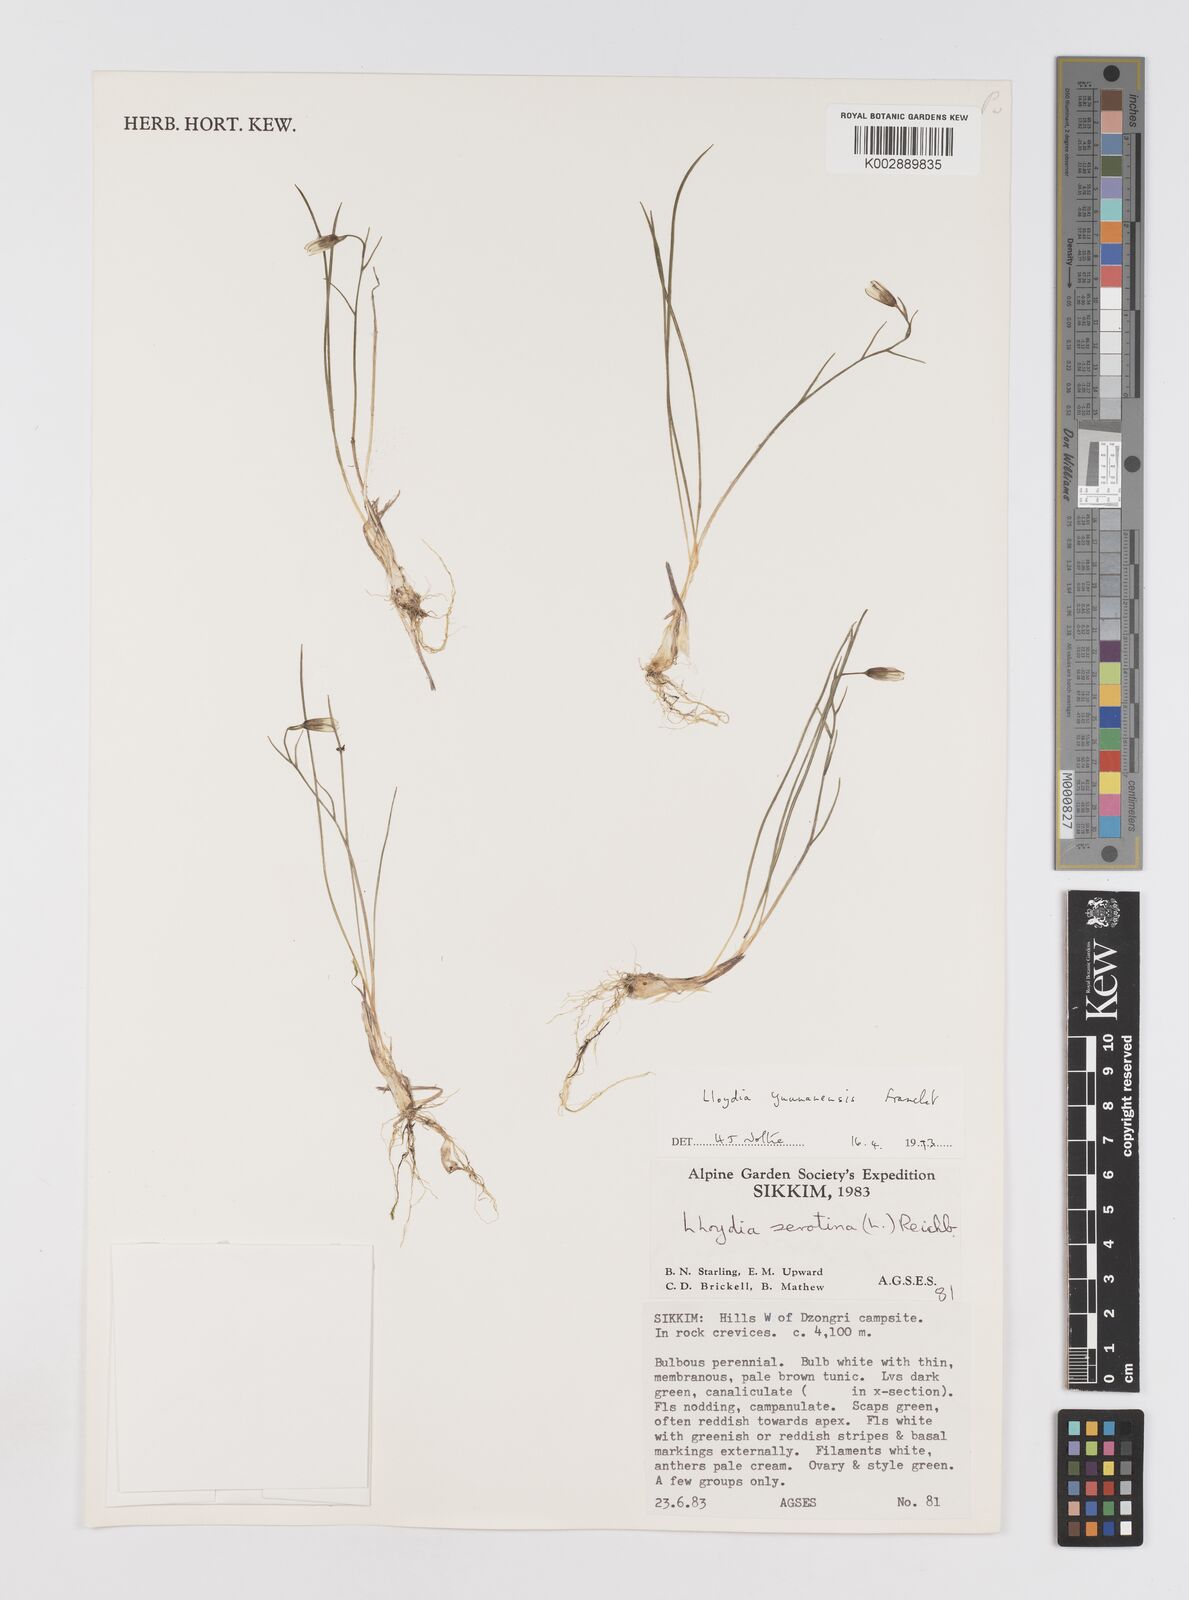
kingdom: Plantae
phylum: Tracheophyta
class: Liliopsida
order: Liliales
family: Liliaceae
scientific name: Liliaceae
